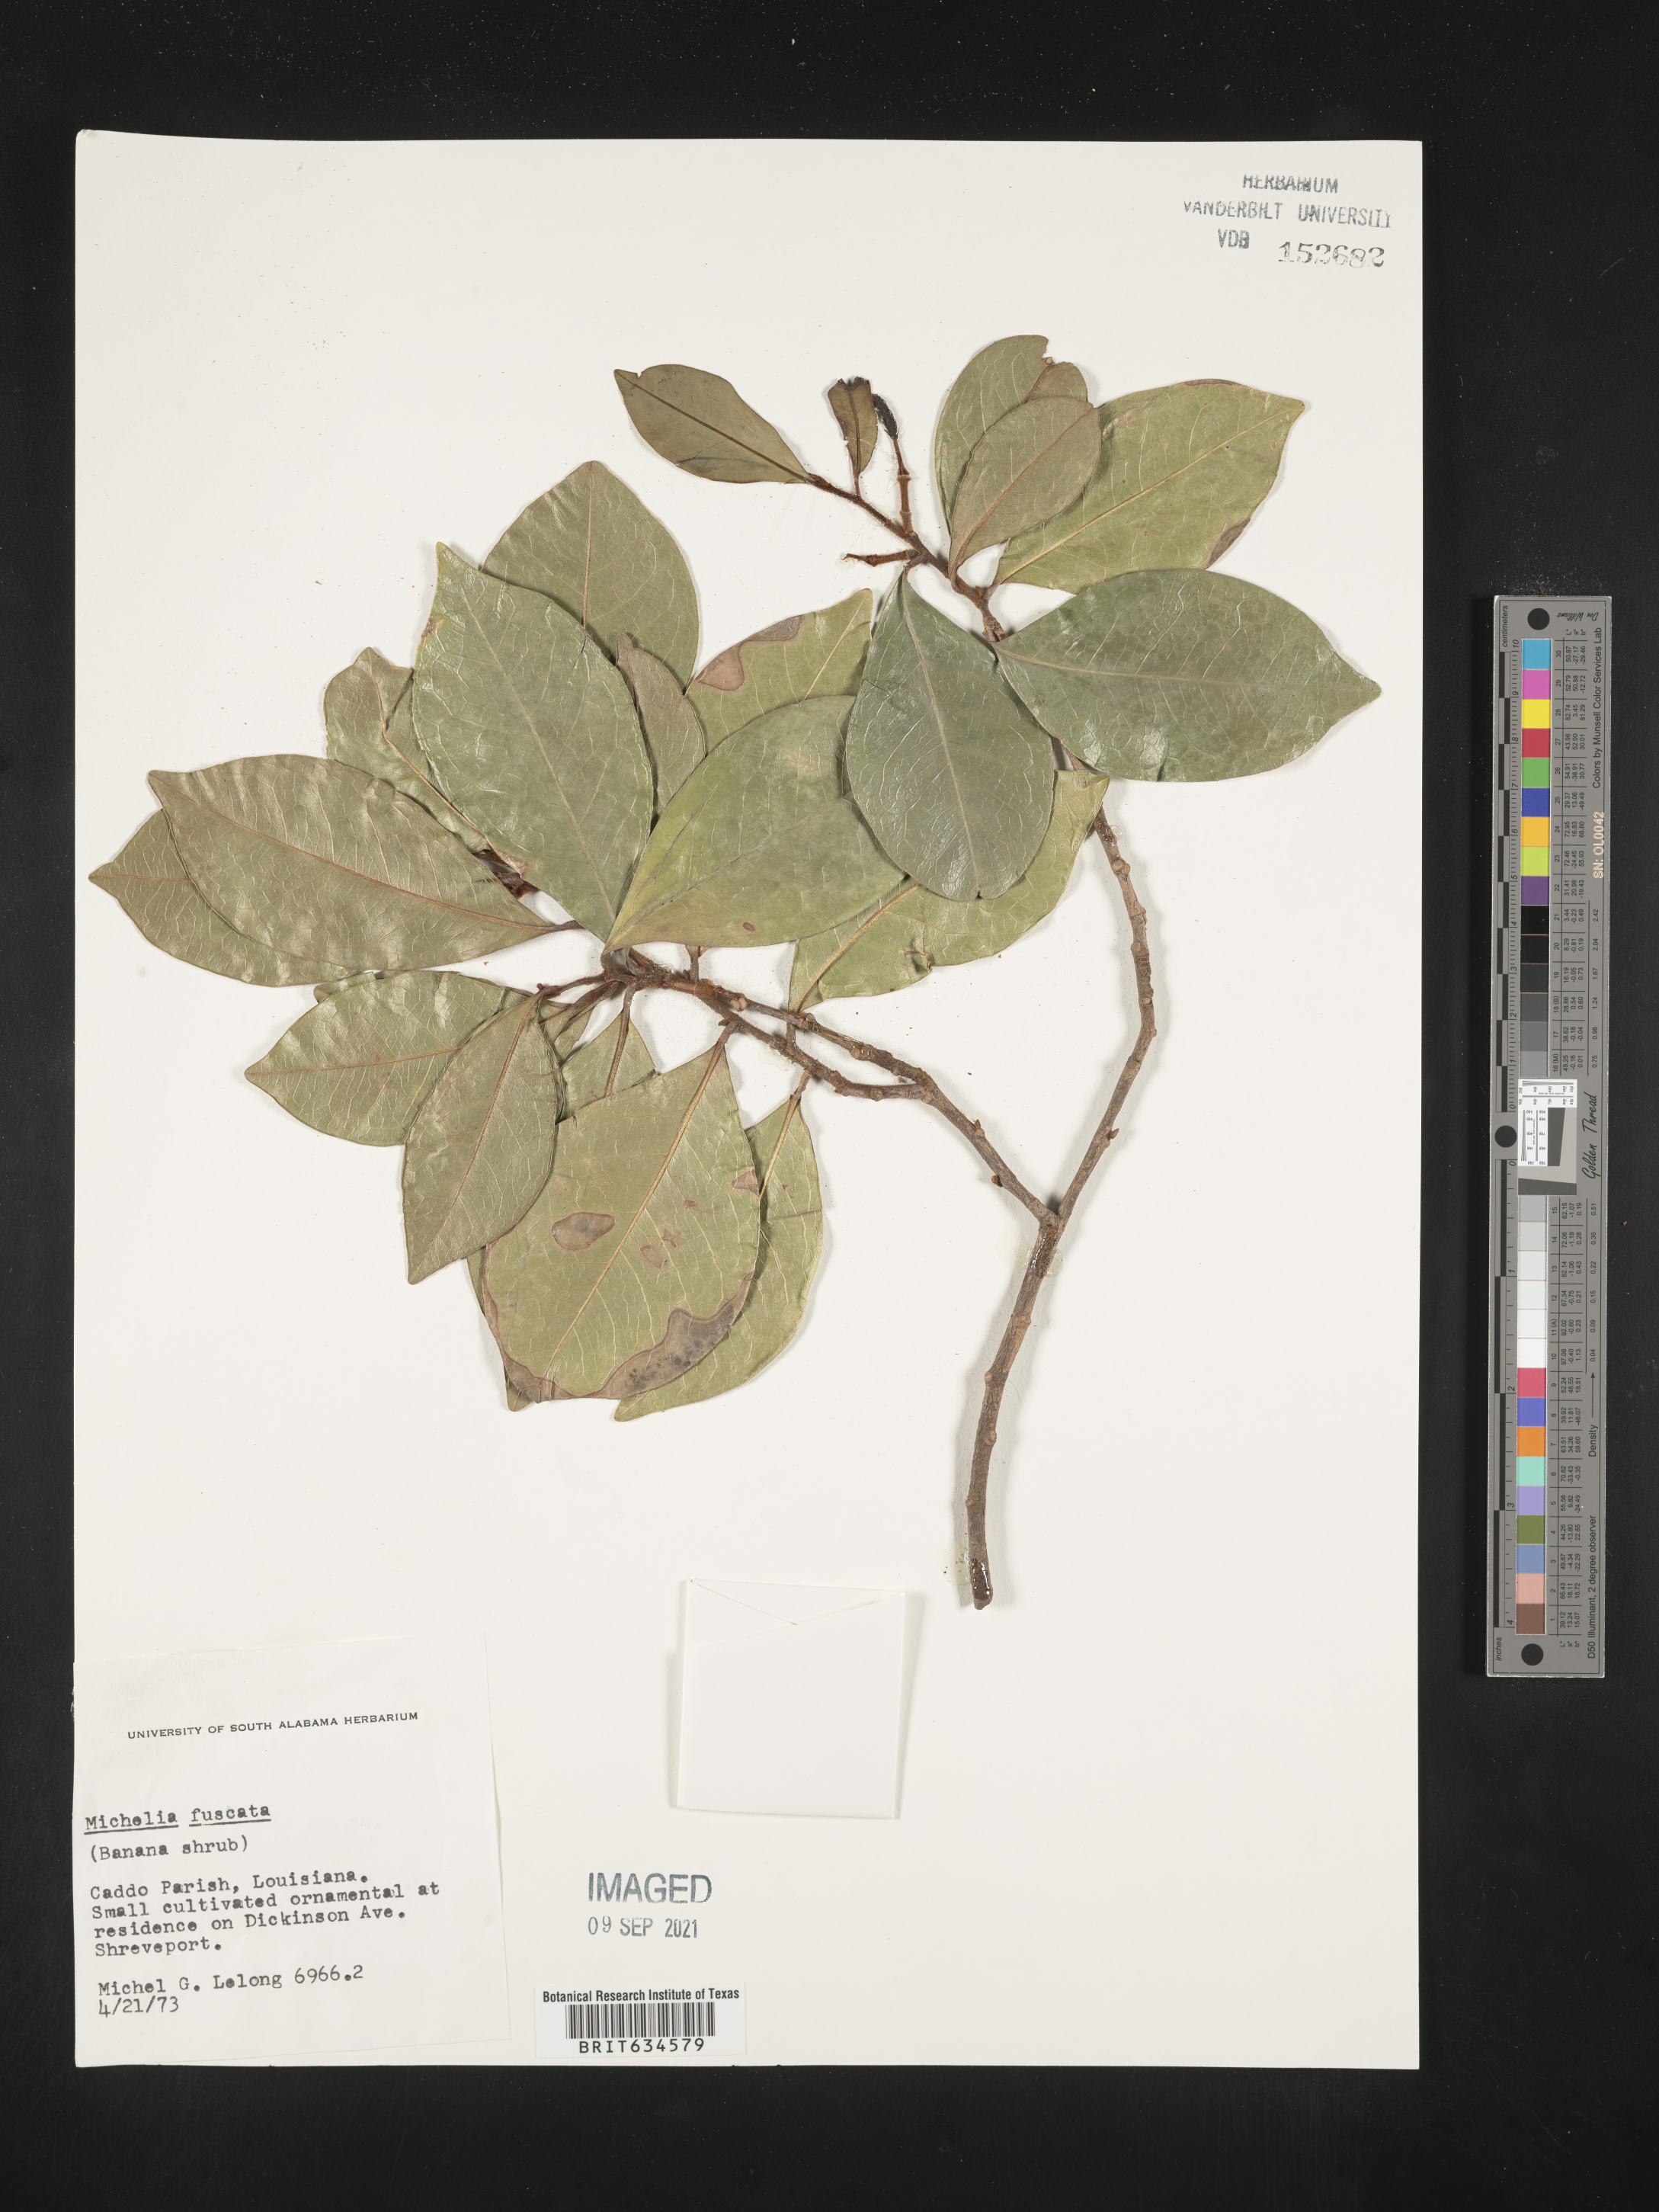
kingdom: Plantae
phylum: Tracheophyta
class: Magnoliopsida
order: Magnoliales
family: Magnoliaceae
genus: Michelia
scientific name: Michelia
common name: Michelia
